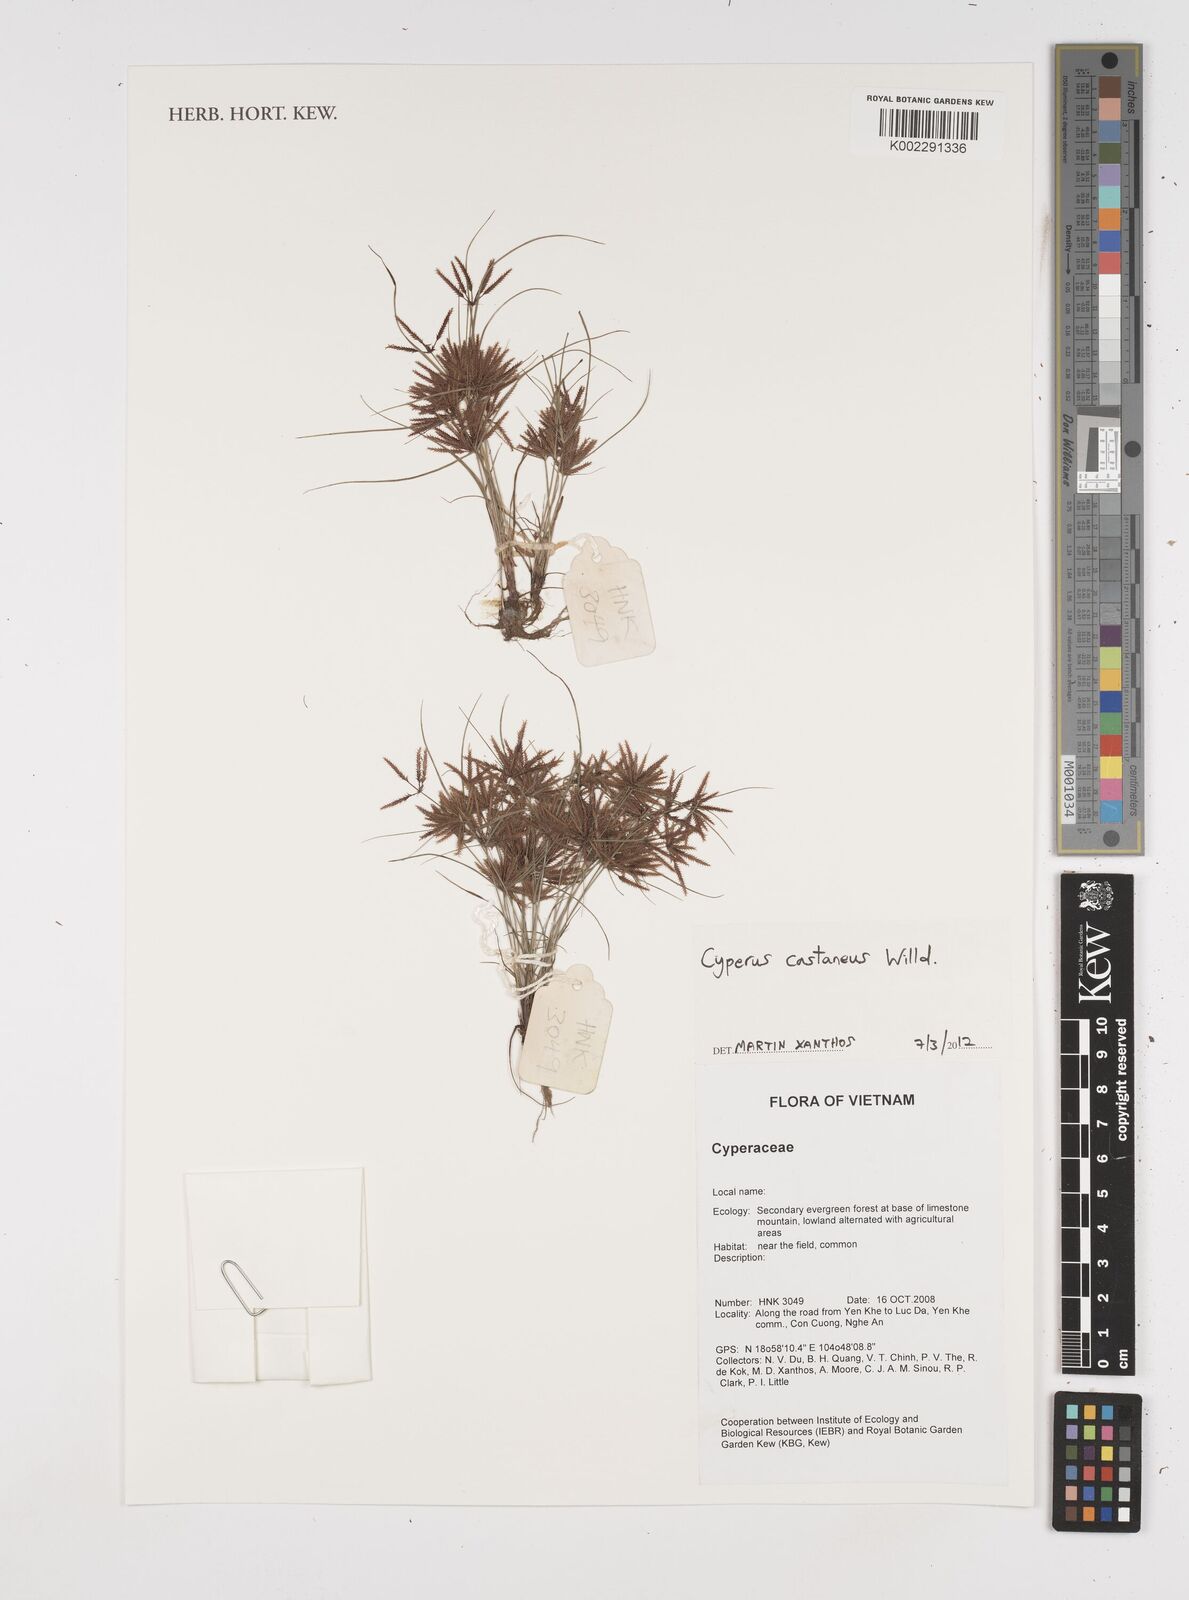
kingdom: Plantae
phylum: Tracheophyta
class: Liliopsida
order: Poales
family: Cyperaceae
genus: Cyperus
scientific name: Cyperus castaneus
